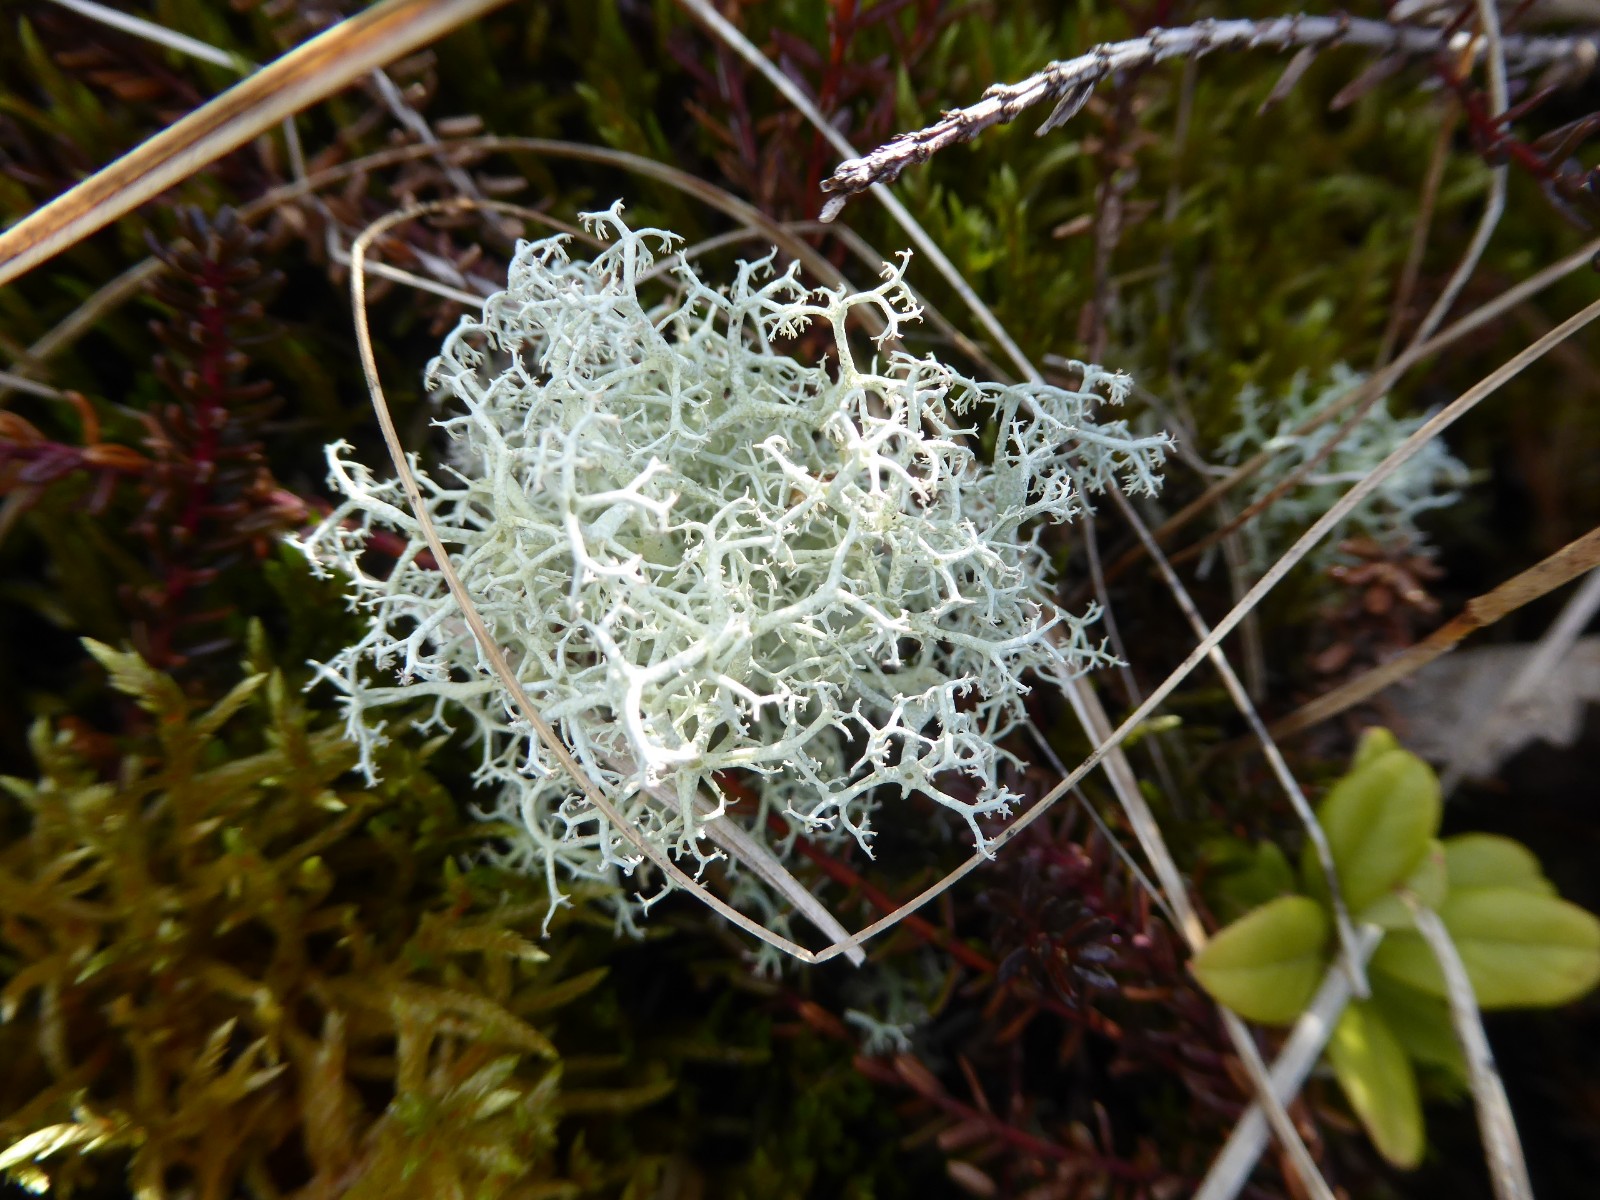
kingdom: Fungi
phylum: Ascomycota
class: Lecanoromycetes
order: Lecanorales
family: Cladoniaceae
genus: Cladonia
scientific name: Cladonia portentosa
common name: hede-rensdyrlav
